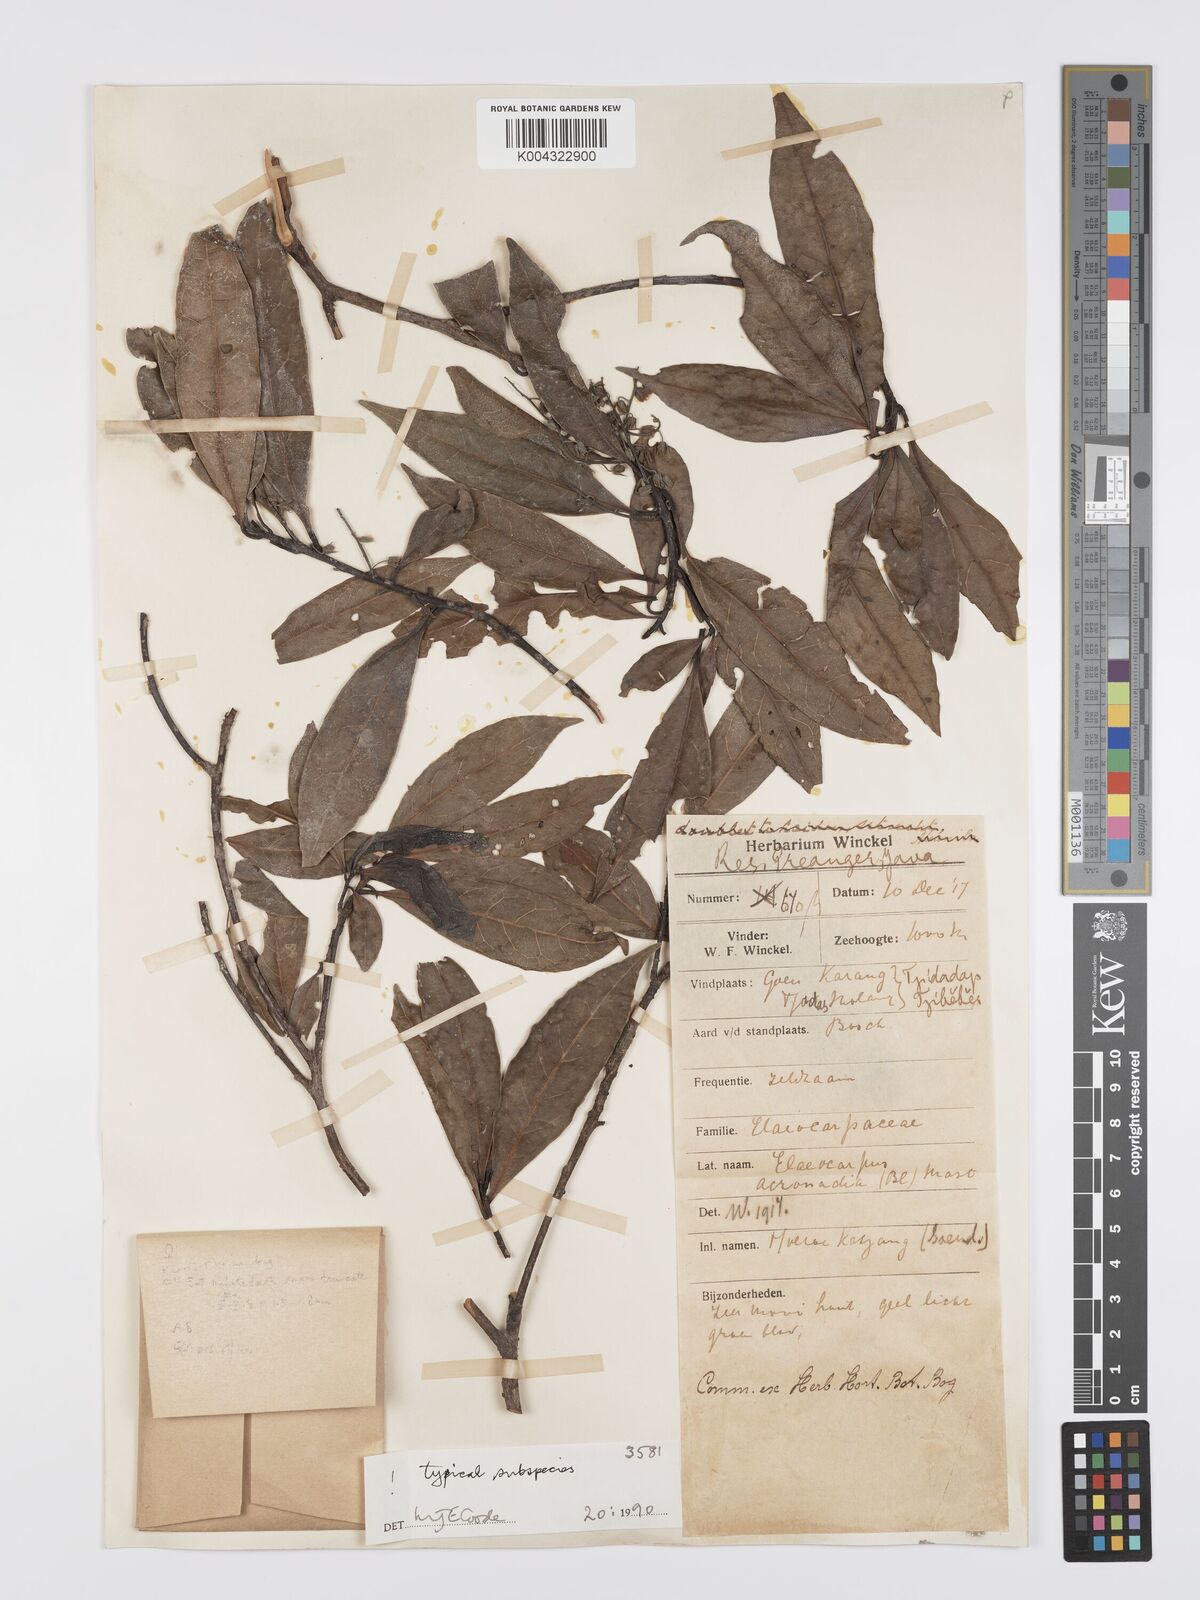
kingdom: Plantae
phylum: Tracheophyta
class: Magnoliopsida
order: Oxalidales
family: Elaeocarpaceae
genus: Elaeocarpus
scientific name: Elaeocarpus acronodia
